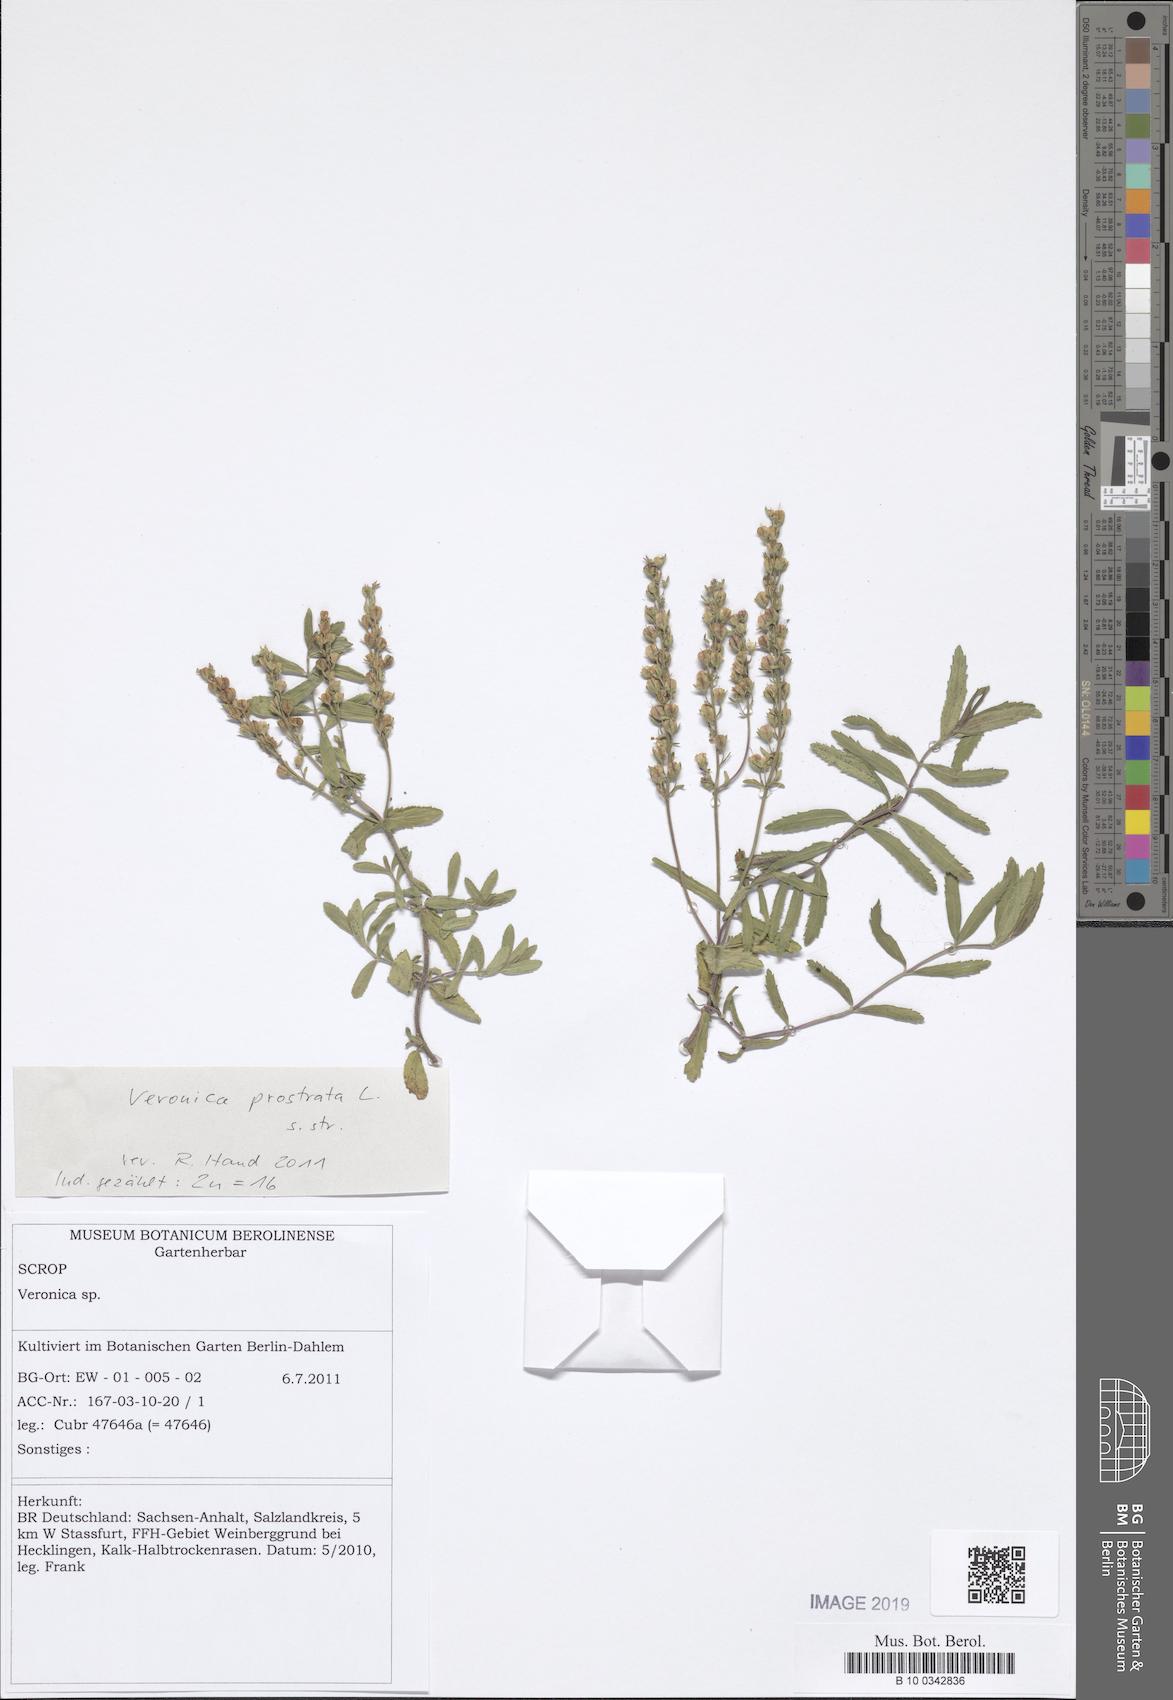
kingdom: Plantae
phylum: Tracheophyta
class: Magnoliopsida
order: Lamiales
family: Plantaginaceae
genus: Veronica
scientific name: Veronica prostrata
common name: Prostrate speedwell
